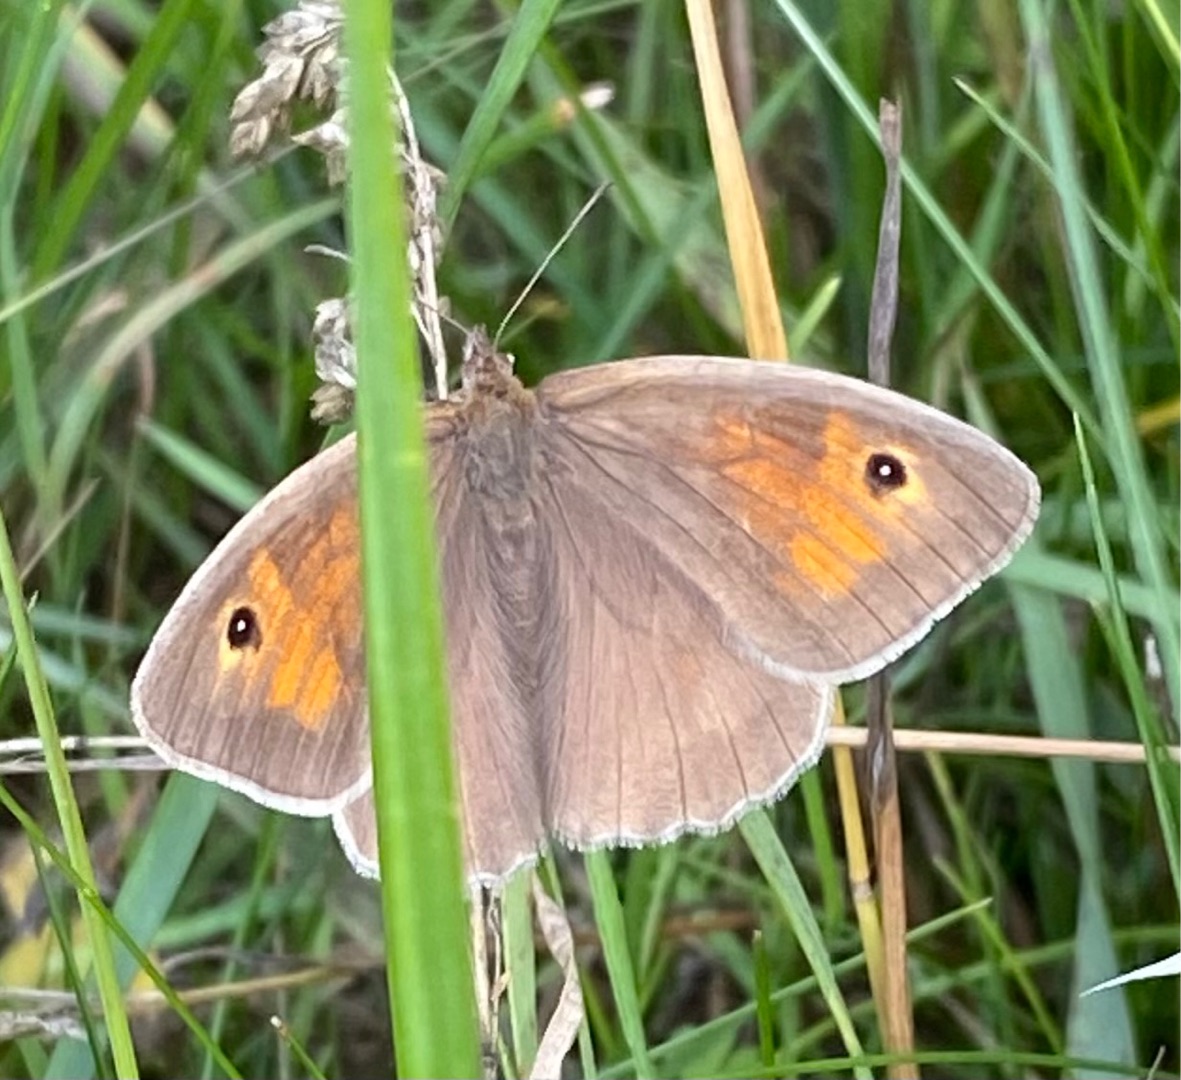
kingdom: Animalia
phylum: Arthropoda
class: Insecta
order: Lepidoptera
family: Nymphalidae
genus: Maniola
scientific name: Maniola jurtina
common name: Græsrandøje
